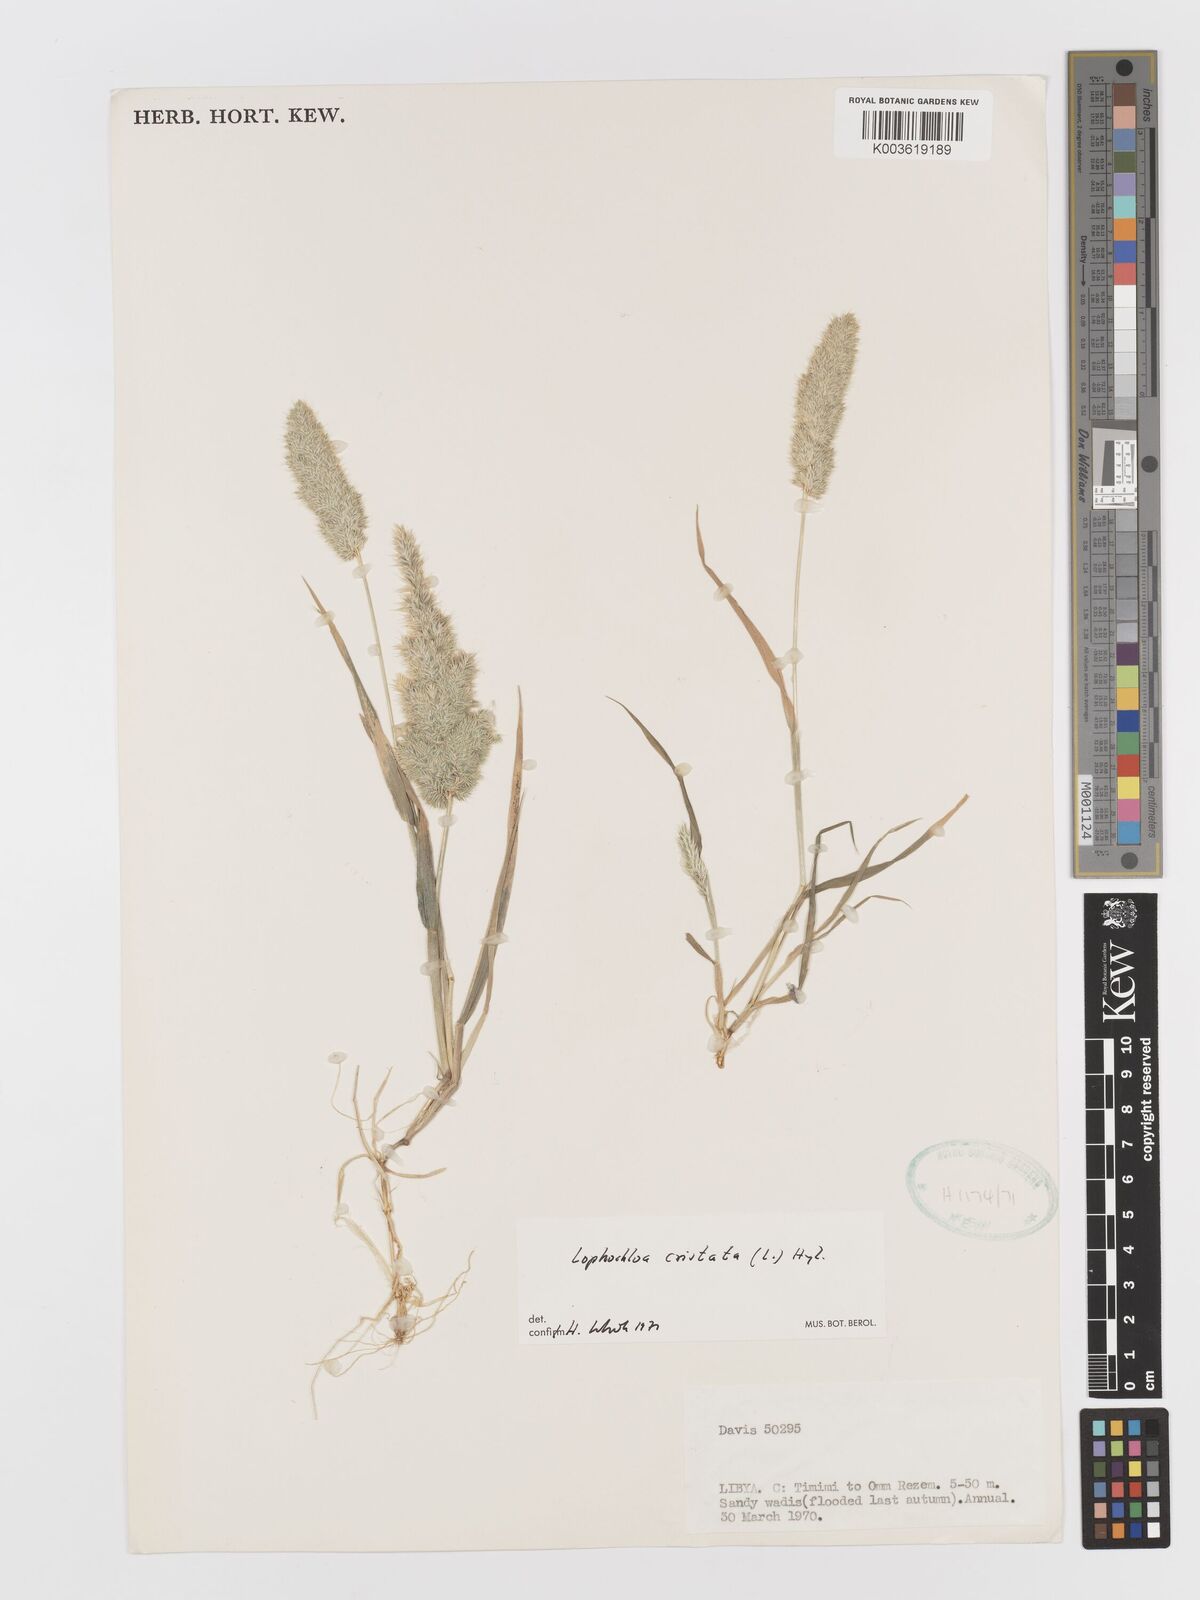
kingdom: Plantae
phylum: Tracheophyta
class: Liliopsida
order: Poales
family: Poaceae
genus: Rostraria
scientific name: Rostraria cristata
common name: Mediterranean hair-grass
